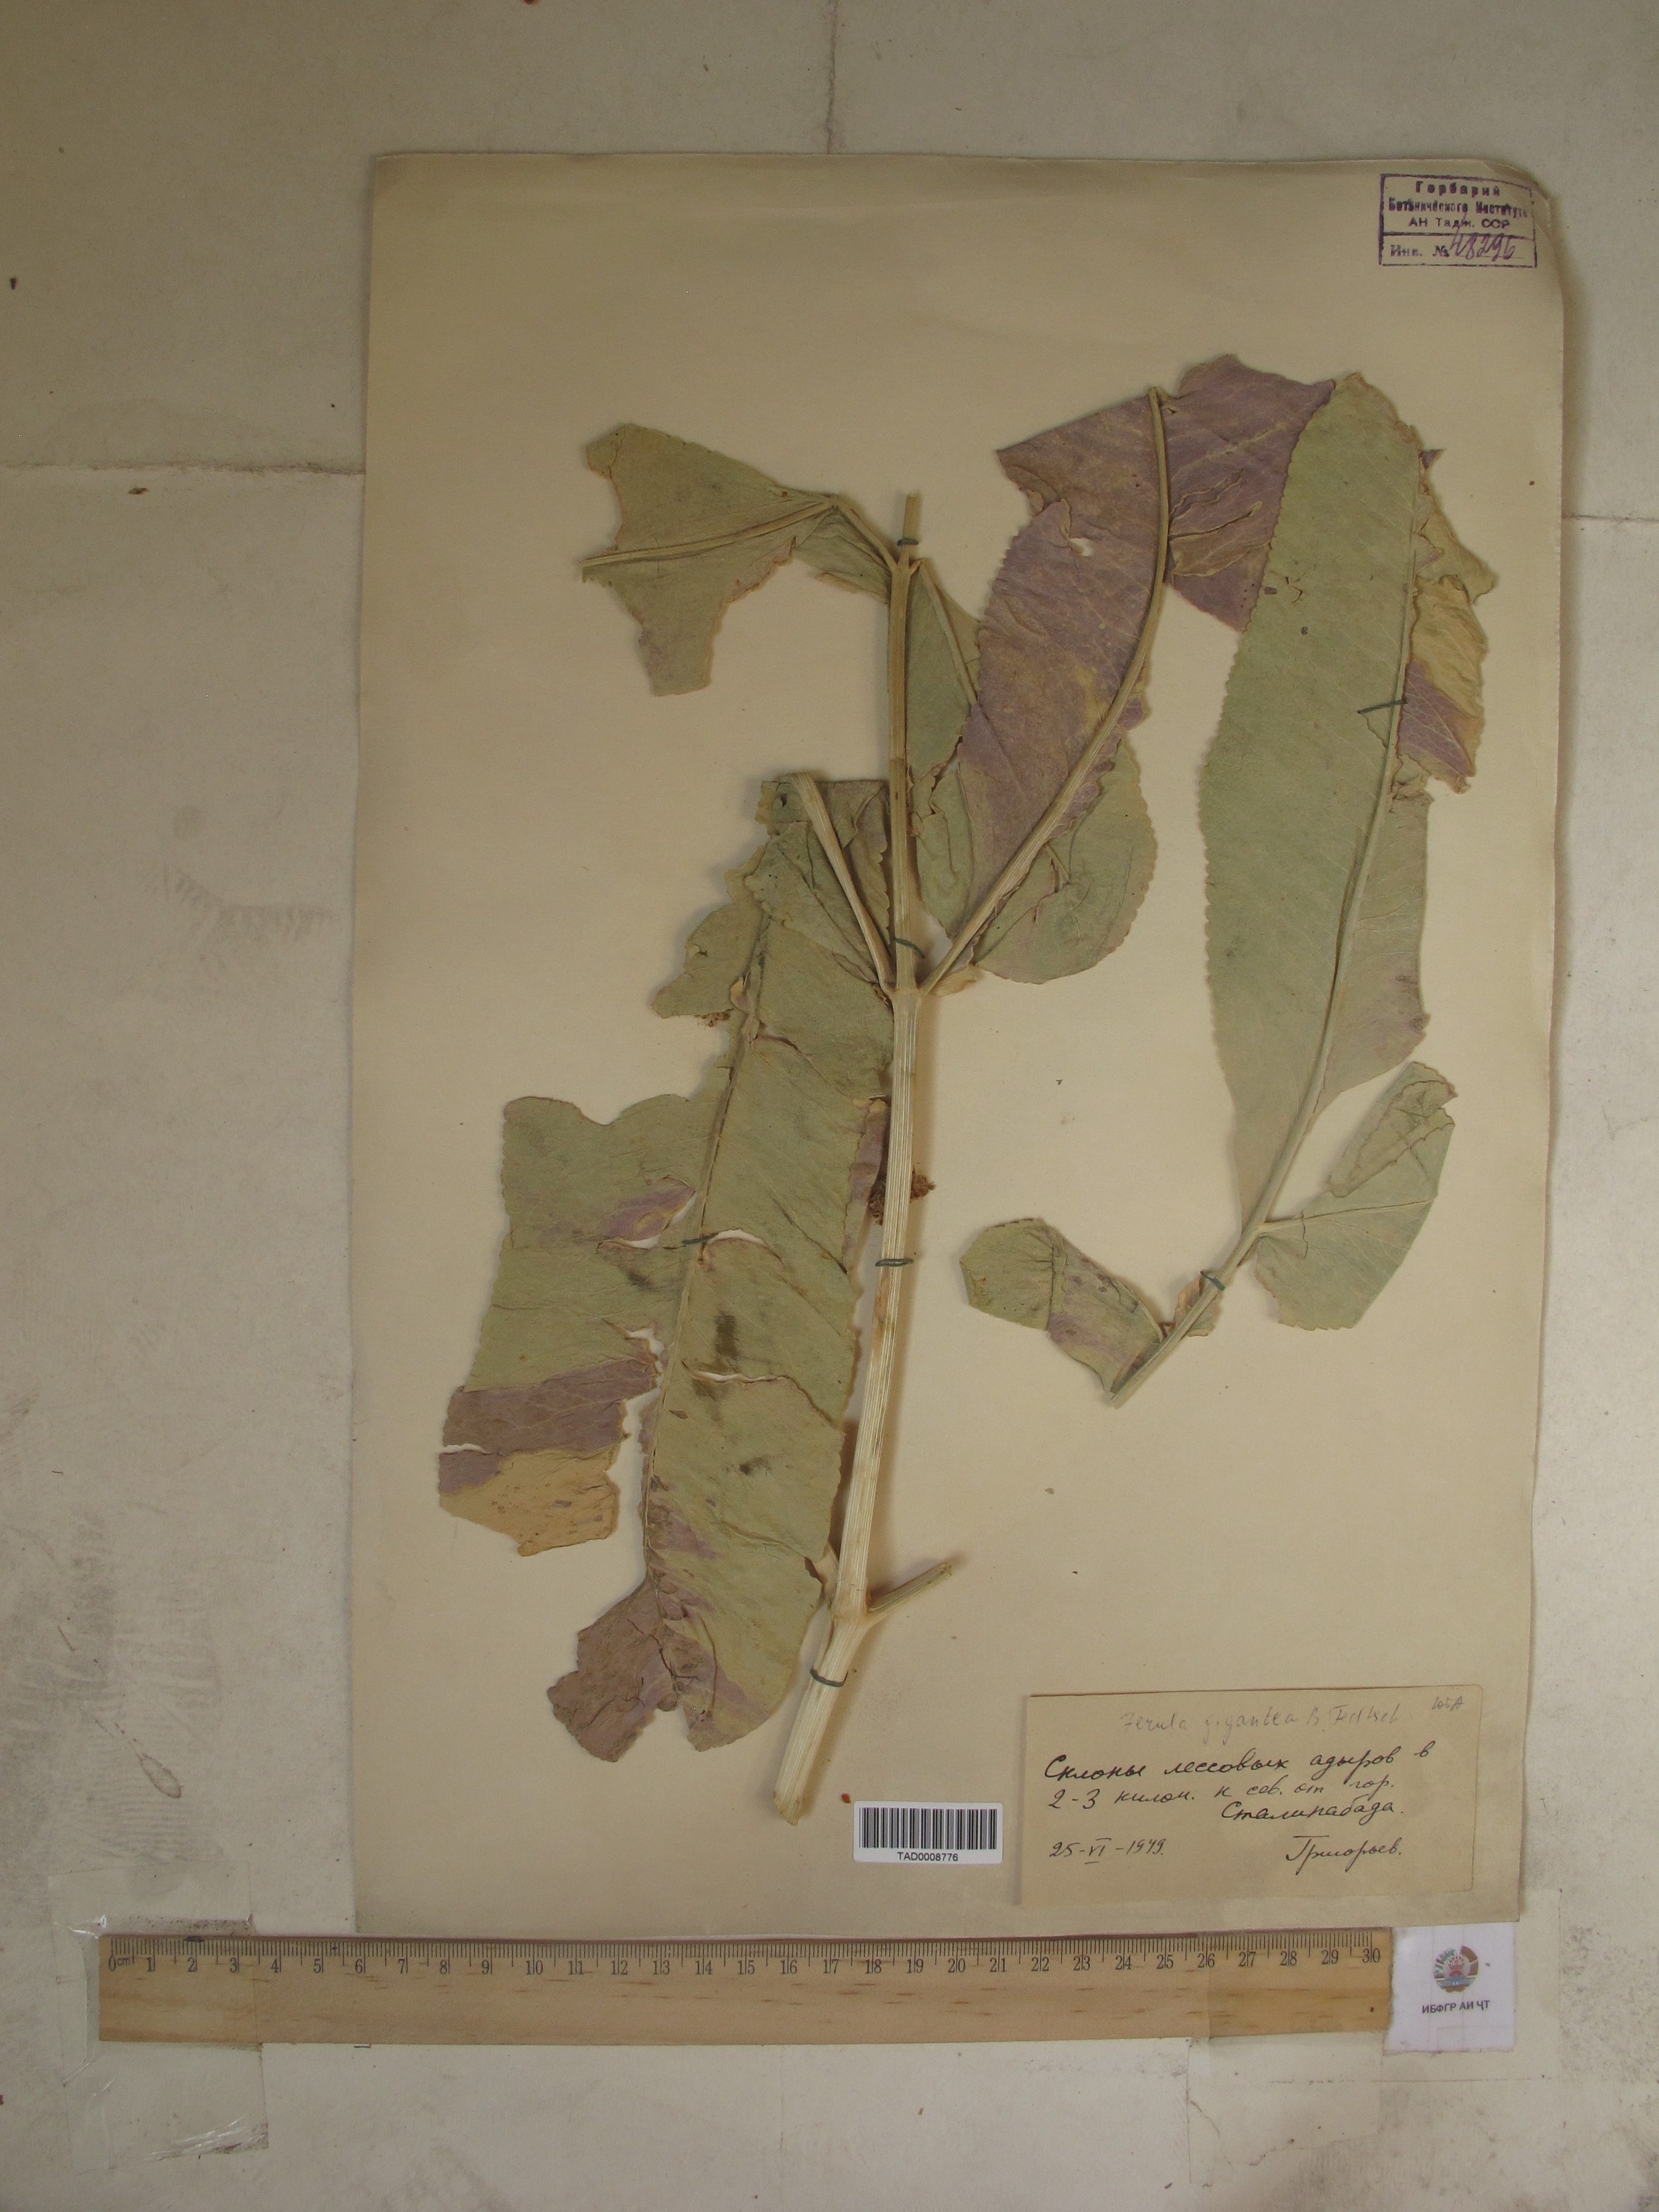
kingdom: Plantae
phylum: Tracheophyta
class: Magnoliopsida
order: Apiales
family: Apiaceae
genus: Ferula
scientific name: Ferula gigantea
